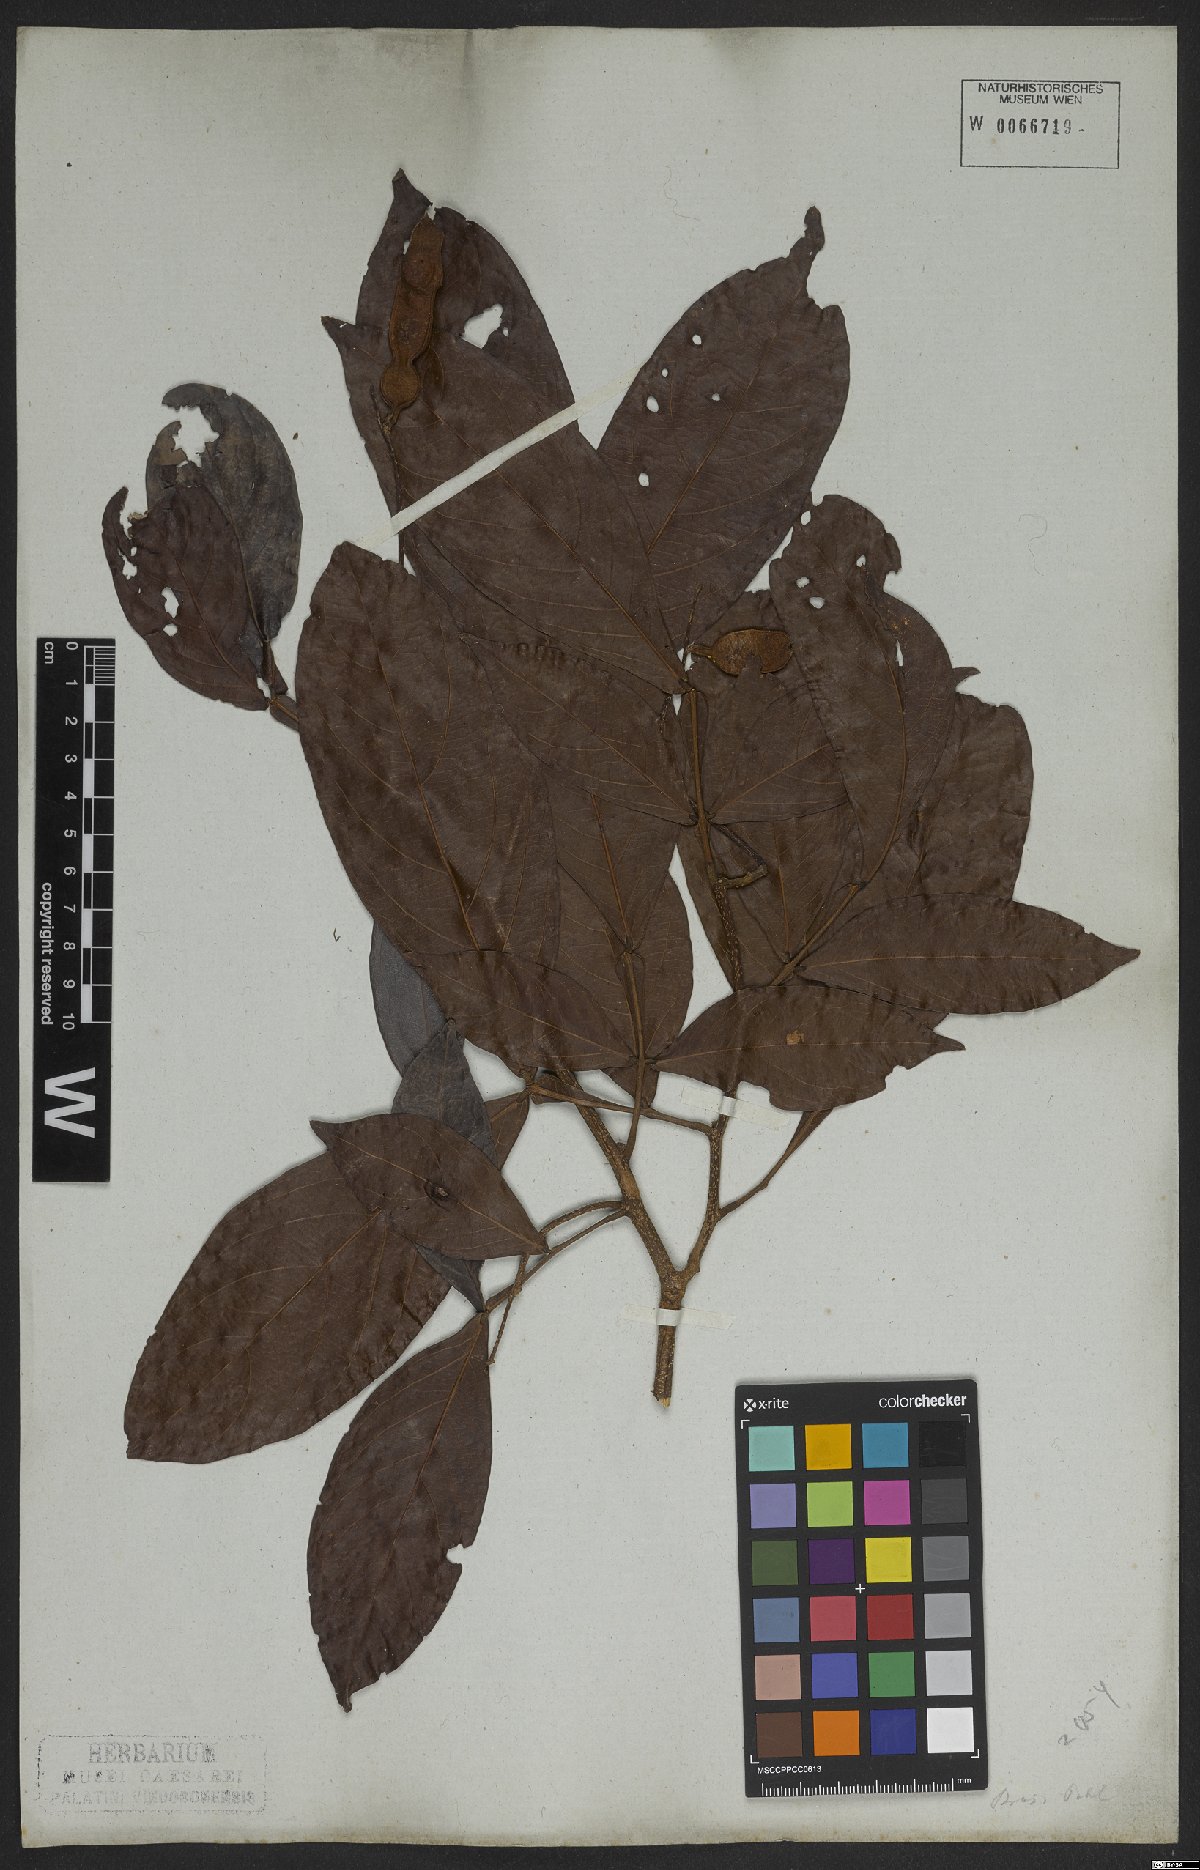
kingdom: Plantae
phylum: Tracheophyta
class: Magnoliopsida
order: Fabales
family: Fabaceae
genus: Inga
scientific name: Inga marginata
